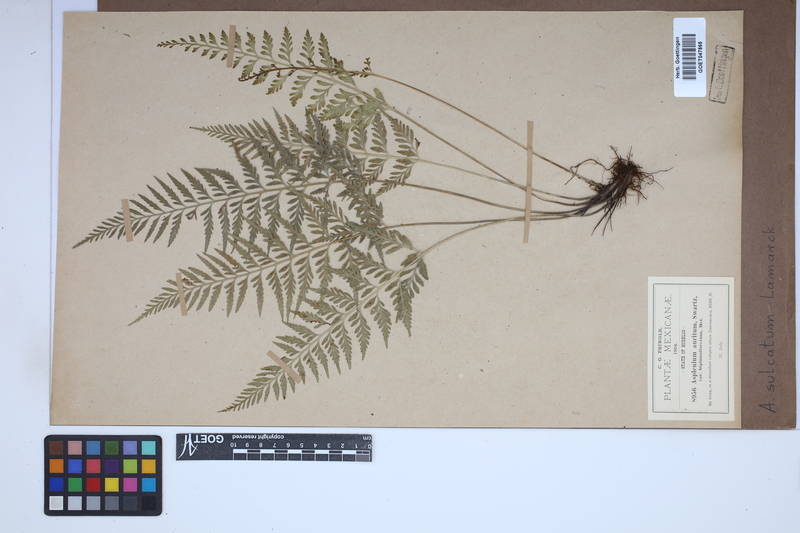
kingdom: Plantae
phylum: Tracheophyta
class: Polypodiopsida
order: Polypodiales
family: Aspleniaceae
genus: Asplenium
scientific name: Asplenium sulcatum
